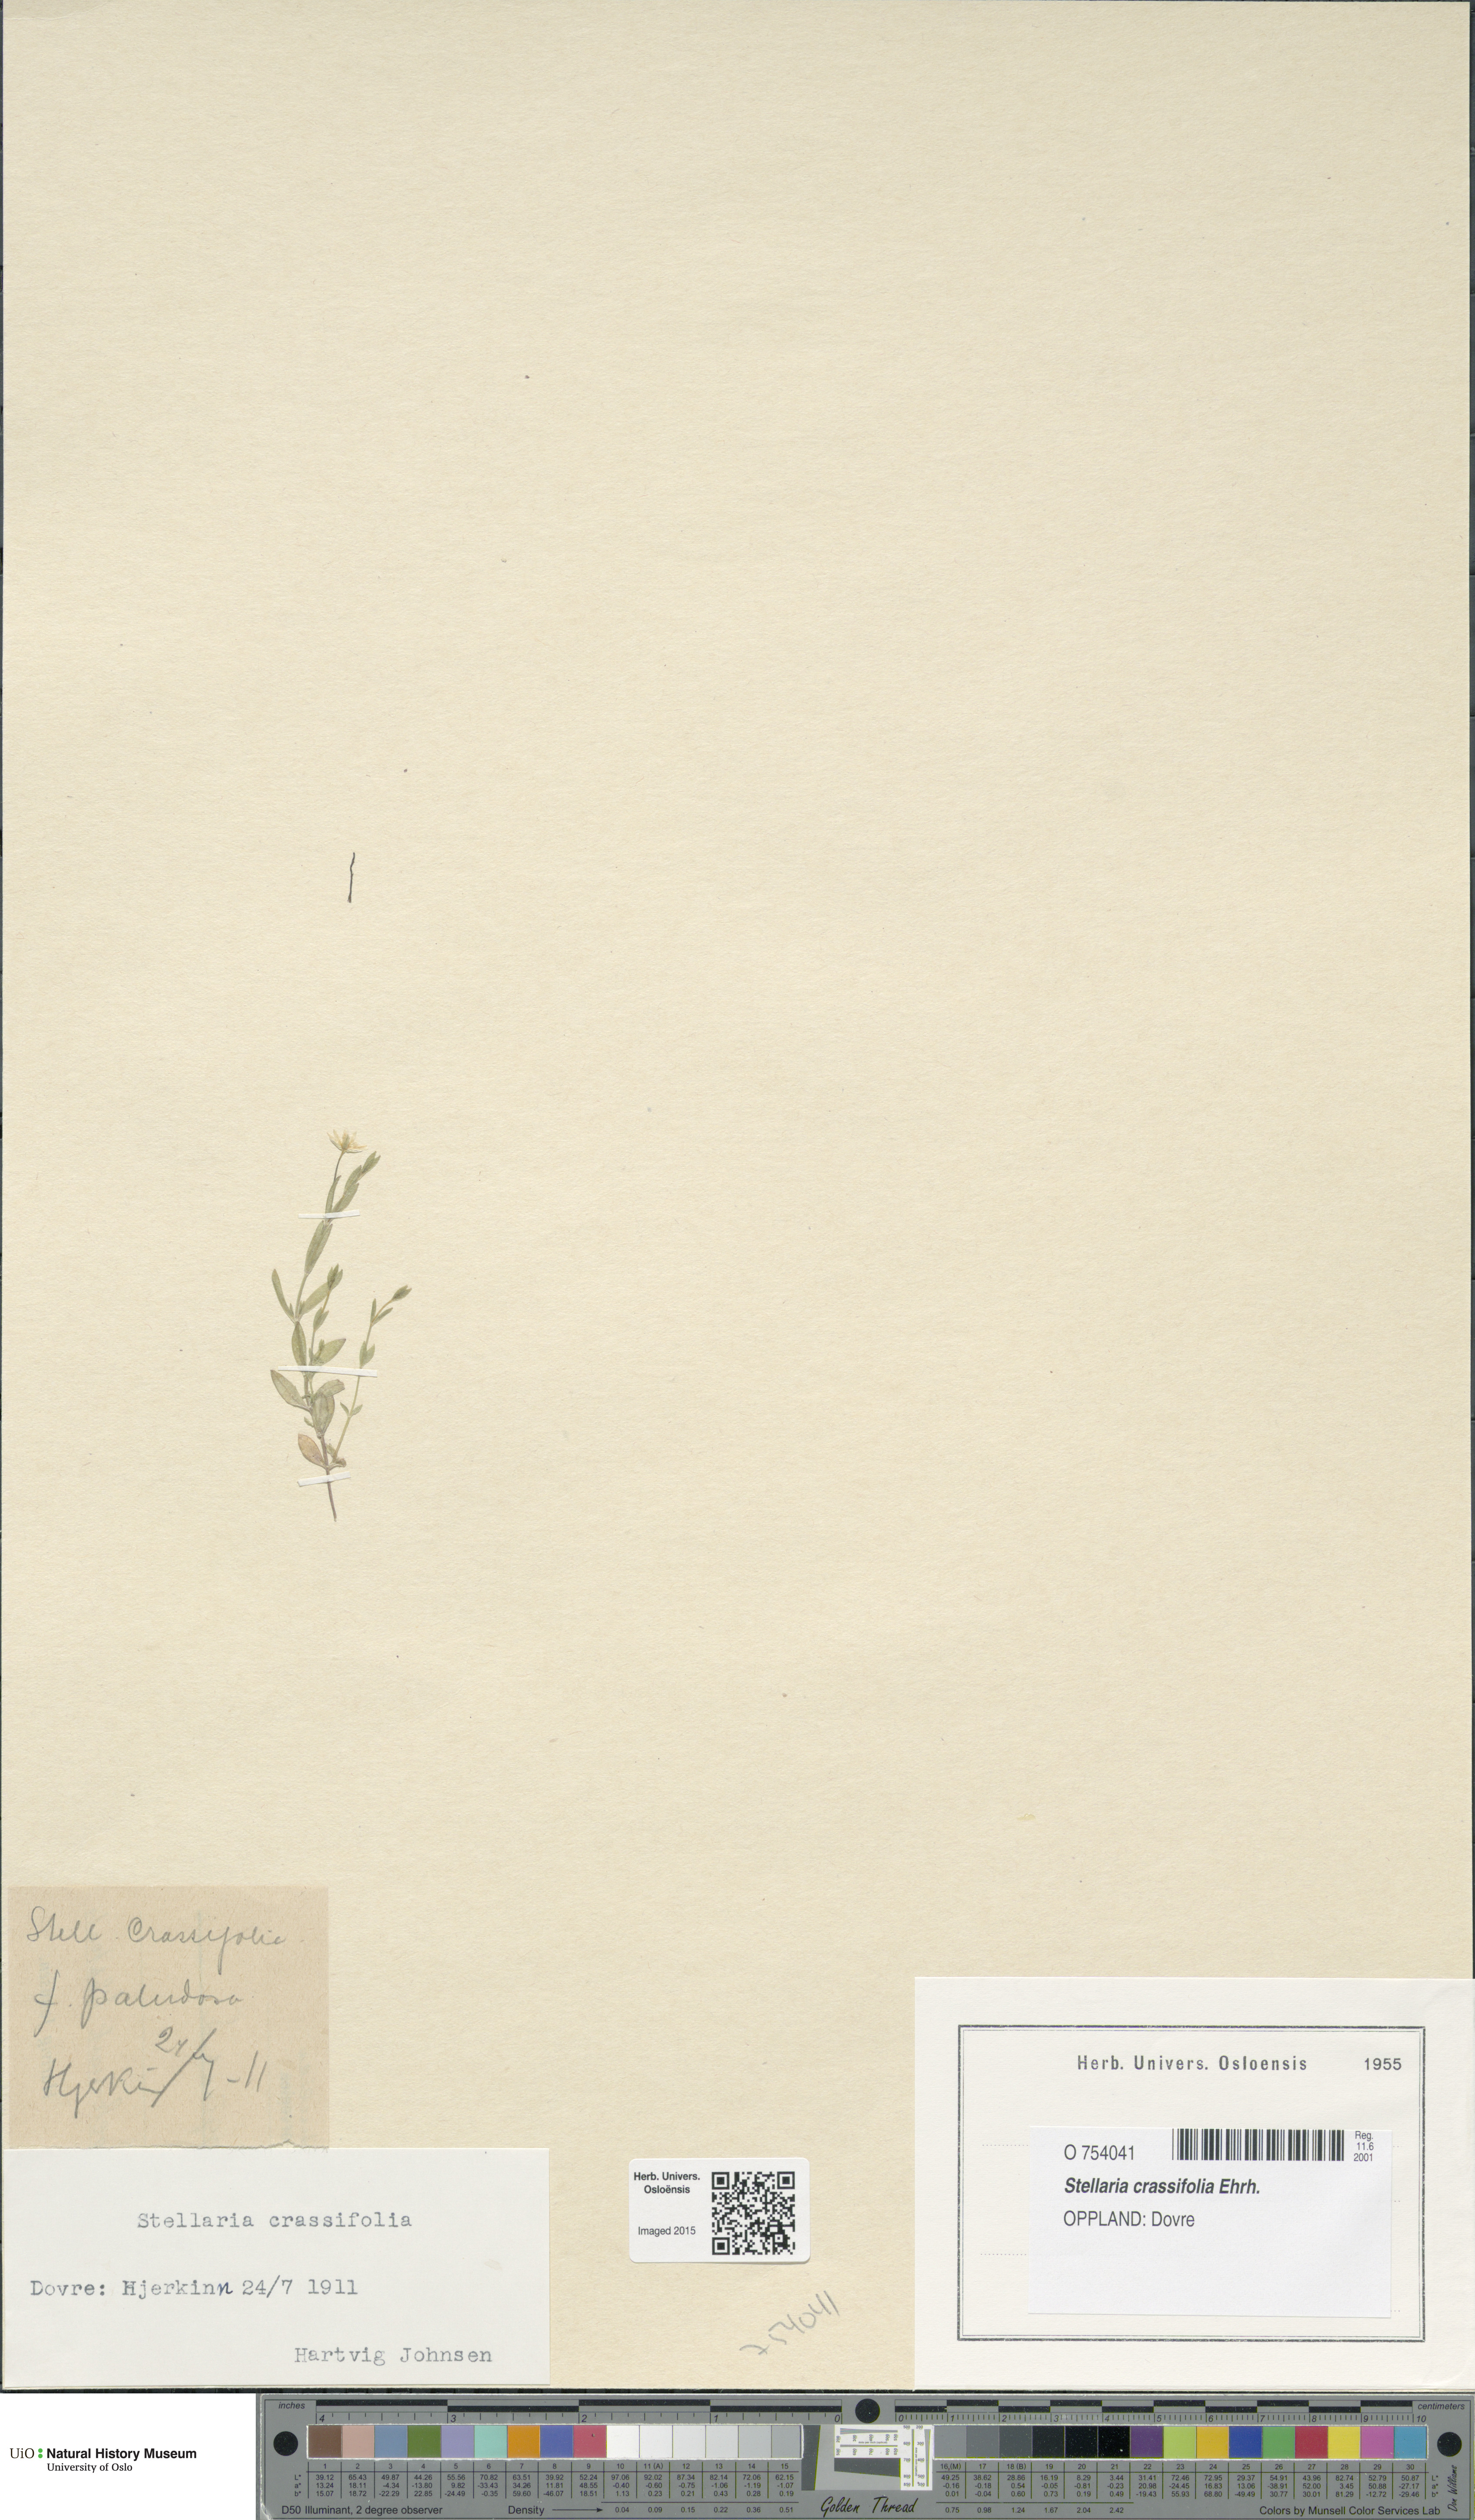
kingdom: Plantae
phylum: Tracheophyta
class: Magnoliopsida
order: Caryophyllales
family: Caryophyllaceae
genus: Stellaria
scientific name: Stellaria crassifolia
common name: Fleshy starwort
